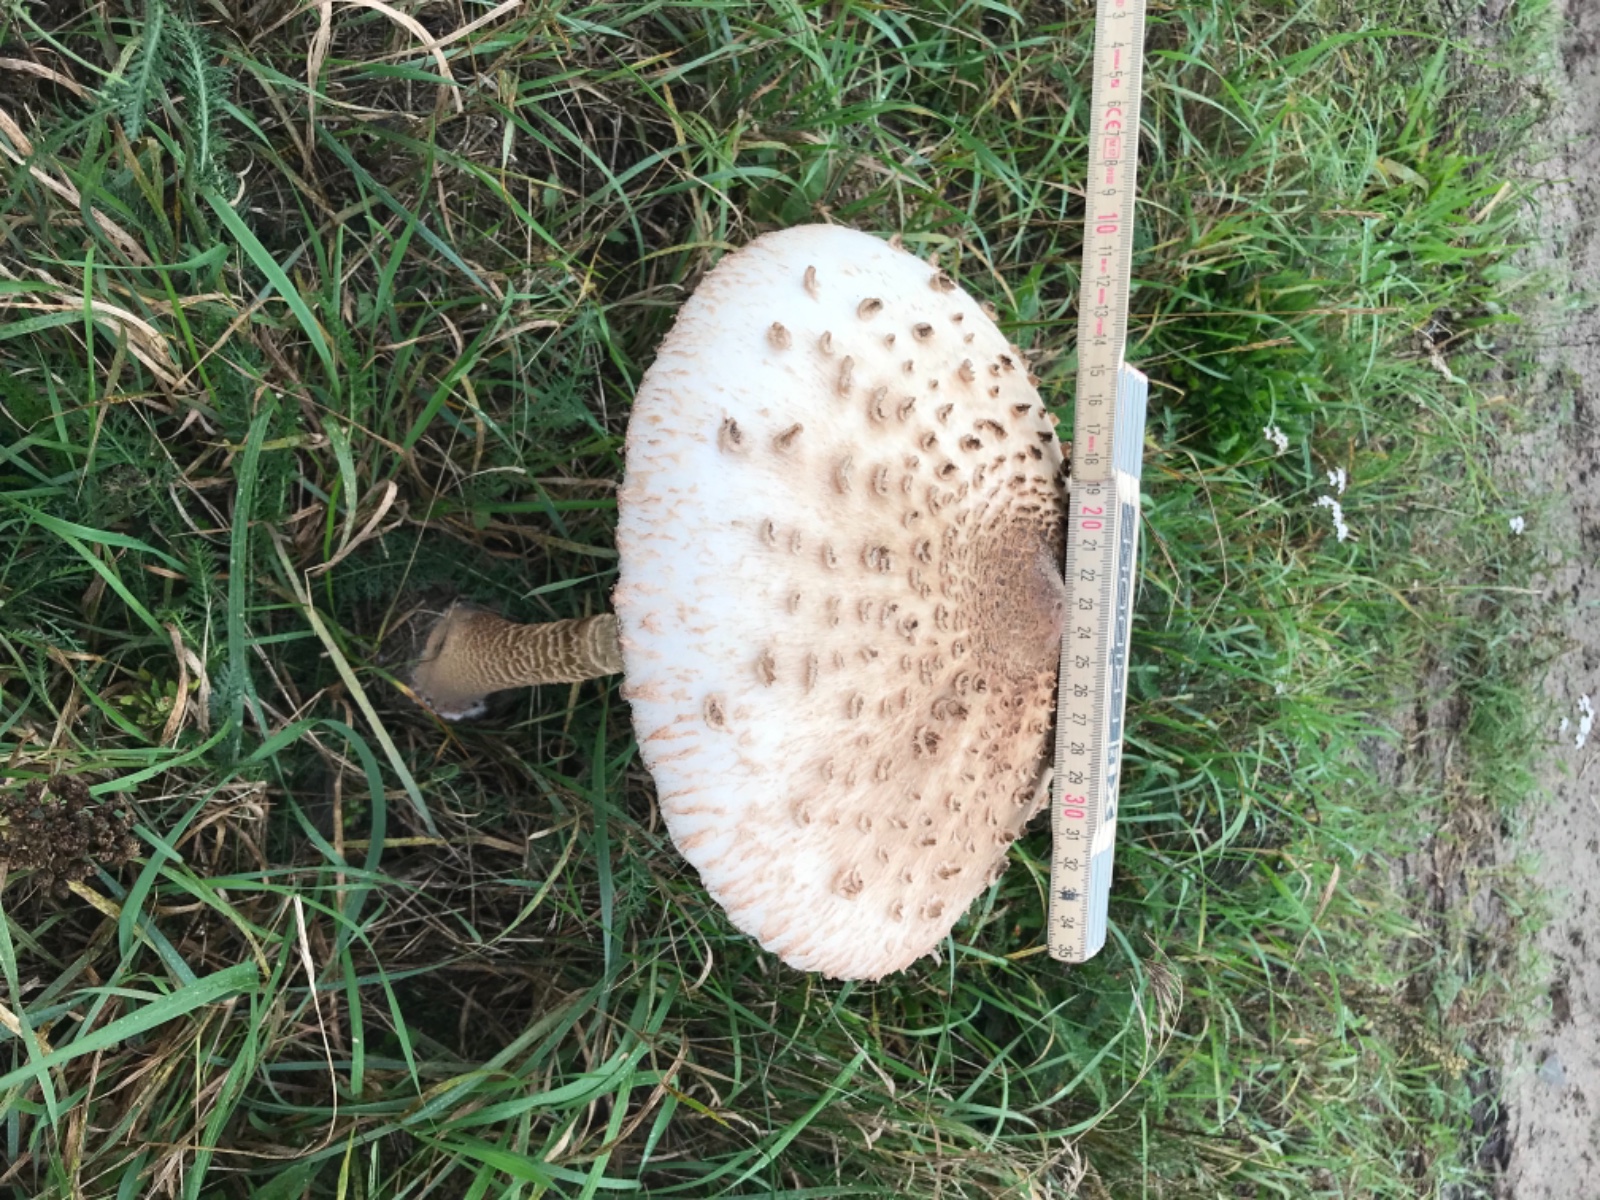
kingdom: Fungi
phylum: Basidiomycota
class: Agaricomycetes
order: Agaricales
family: Agaricaceae
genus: Macrolepiota
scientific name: Macrolepiota procera
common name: stor kæmpeparasolhat
